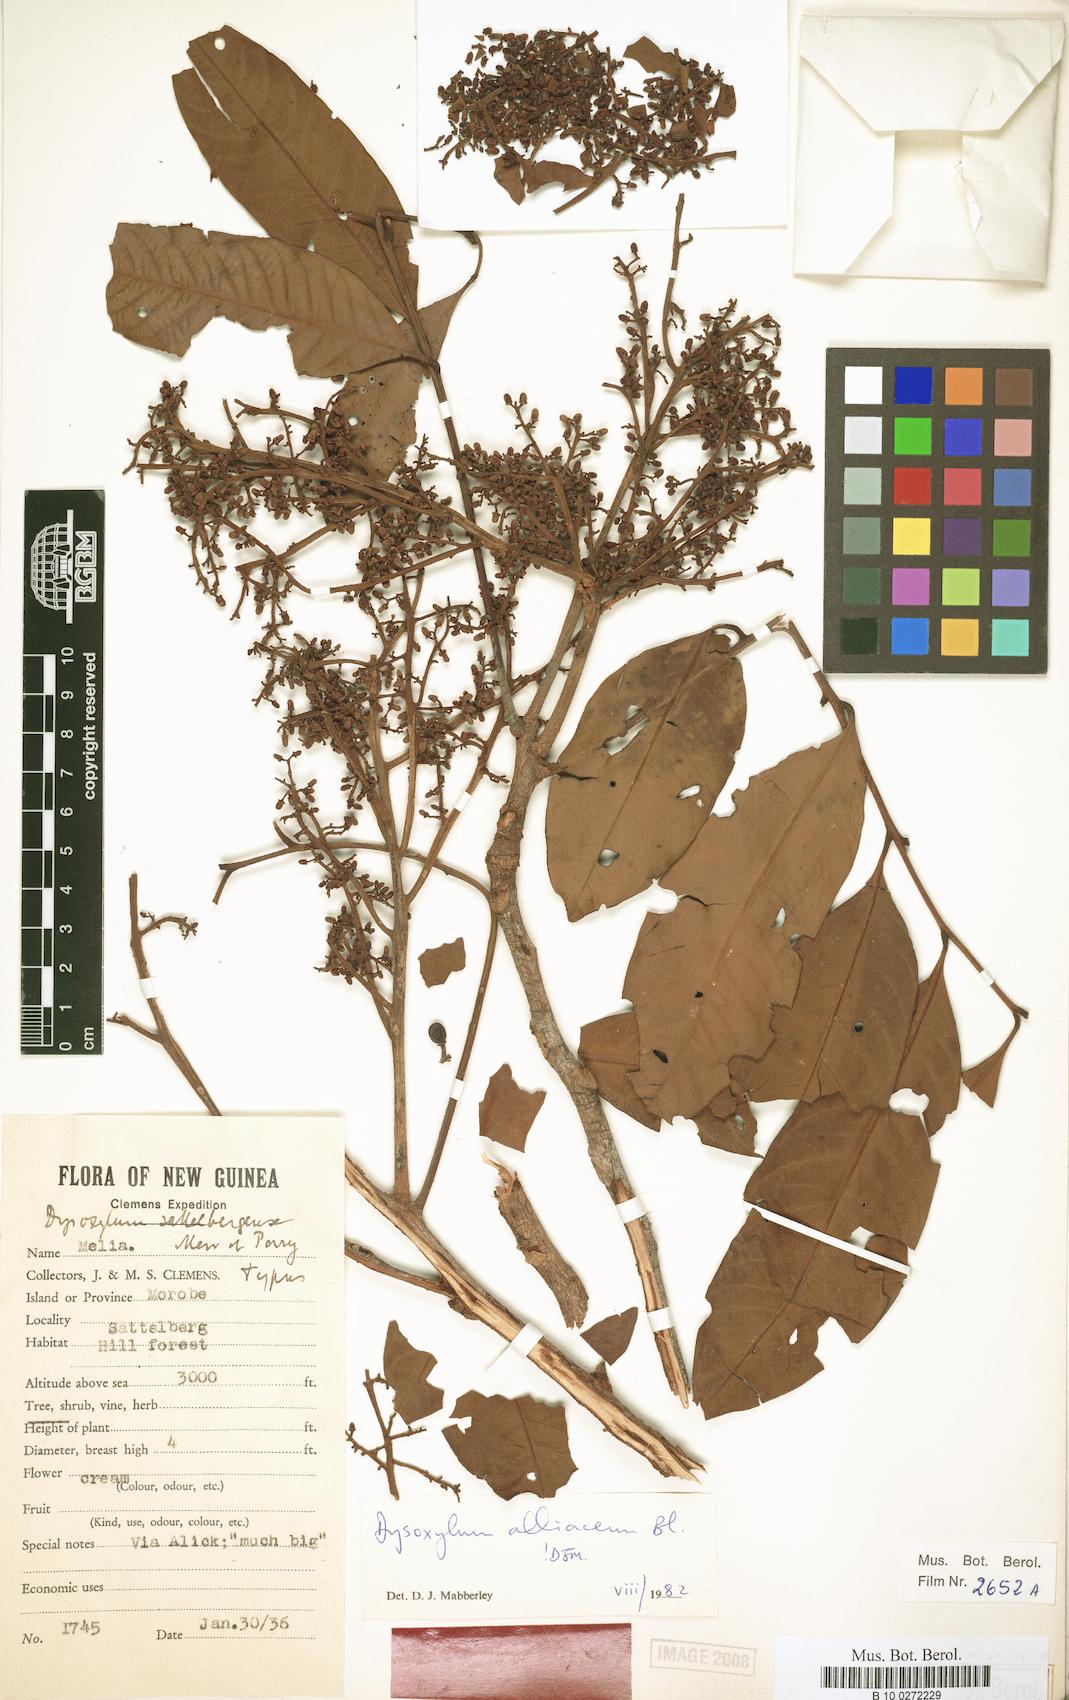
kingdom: Plantae
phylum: Tracheophyta
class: Magnoliopsida
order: Sapindales
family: Meliaceae
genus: Prasoxylon
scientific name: Prasoxylon alliaceum
